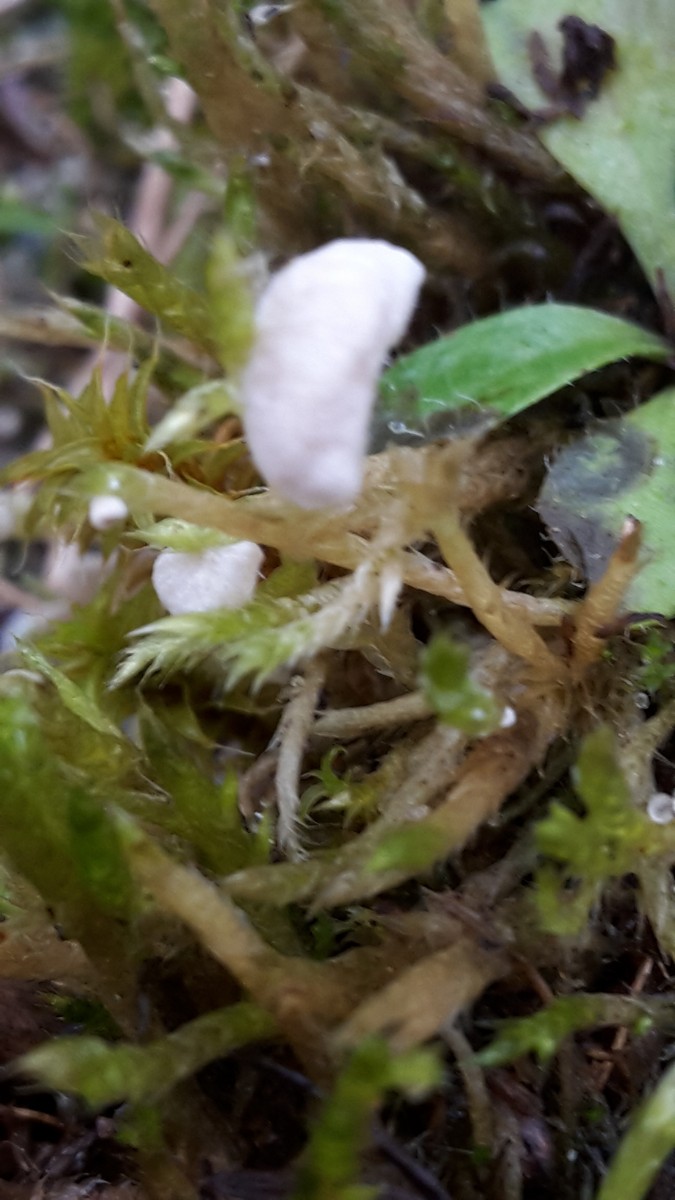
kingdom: Fungi
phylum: Basidiomycota
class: Agaricomycetes
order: Agaricales
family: Hygrophoraceae
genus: Arrhenia
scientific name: Arrhenia retiruga
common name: lille fontænehat
